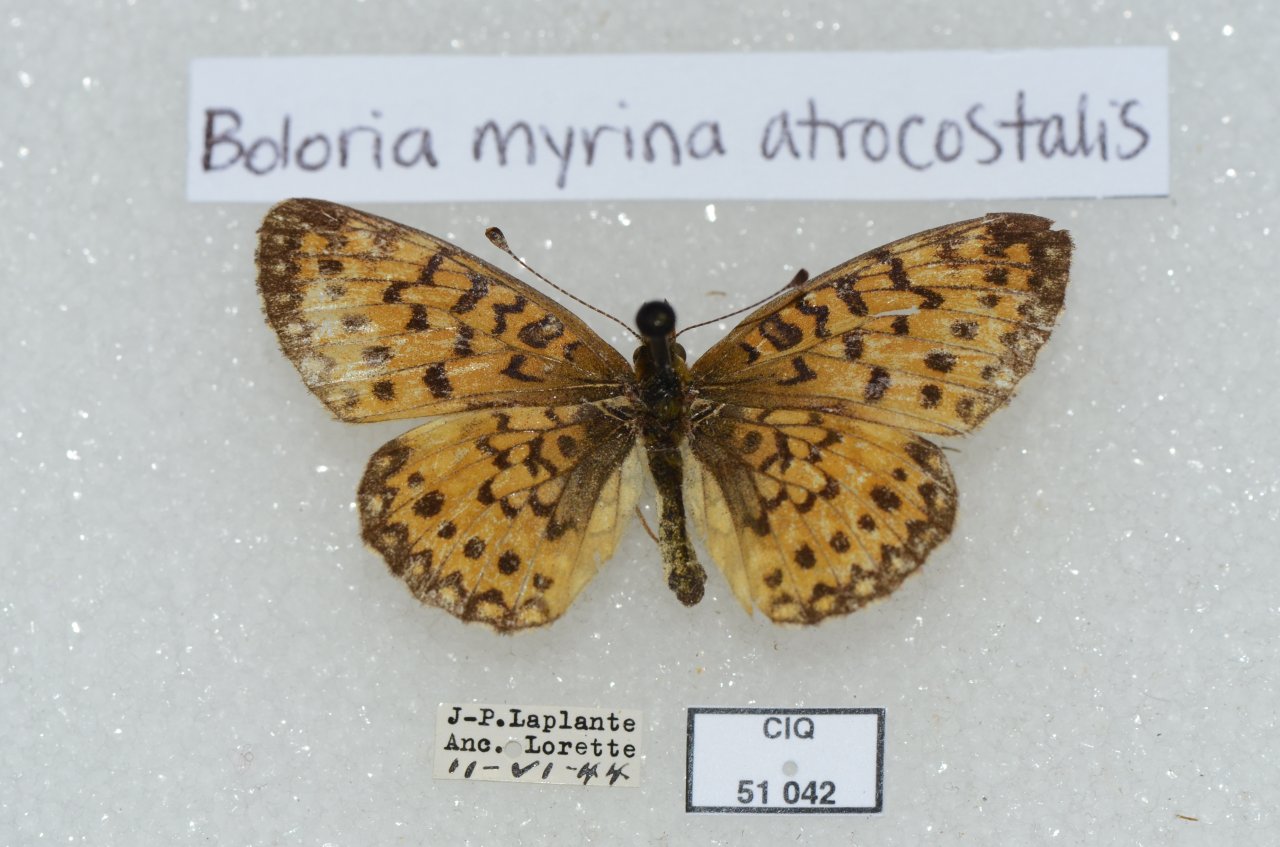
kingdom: Animalia
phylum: Arthropoda
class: Insecta
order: Lepidoptera
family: Nymphalidae
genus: Boloria
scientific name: Boloria selene
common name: Silver-bordered Fritillary
